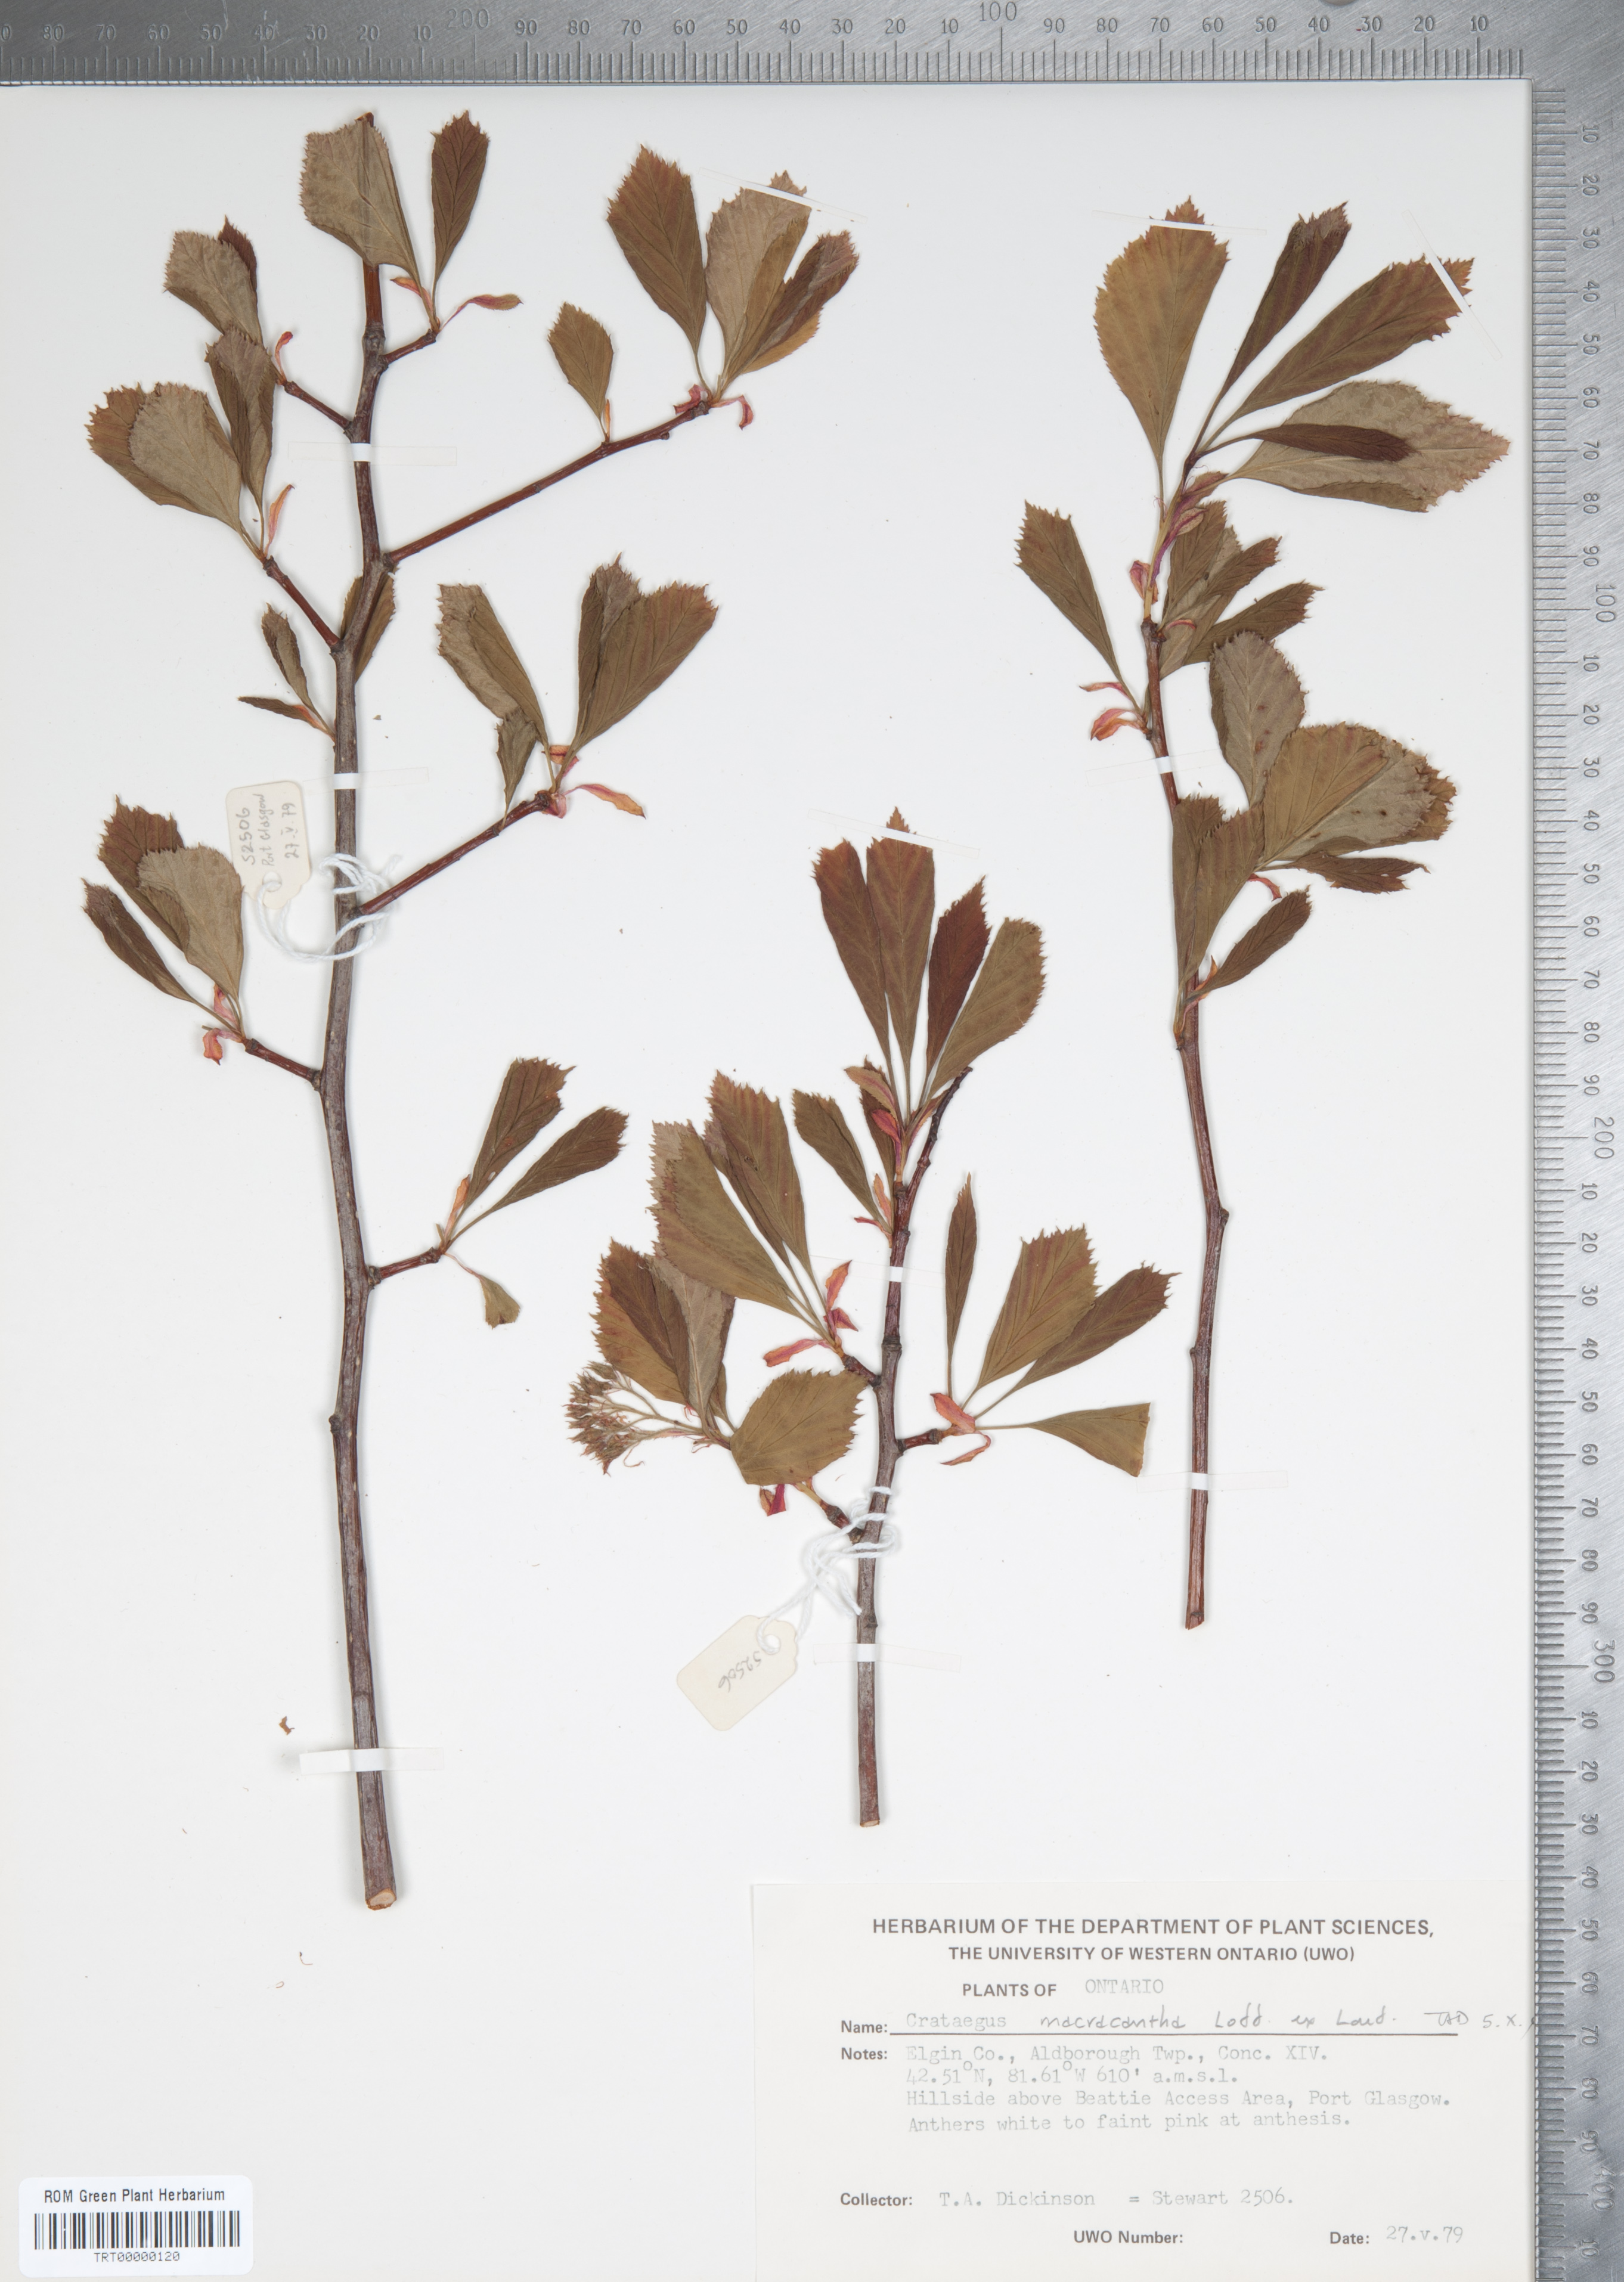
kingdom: Plantae
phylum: Tracheophyta
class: Magnoliopsida
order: Rosales
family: Rosaceae
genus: Crataegus
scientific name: Crataegus macracantha
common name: Large-thorn hawthorn
